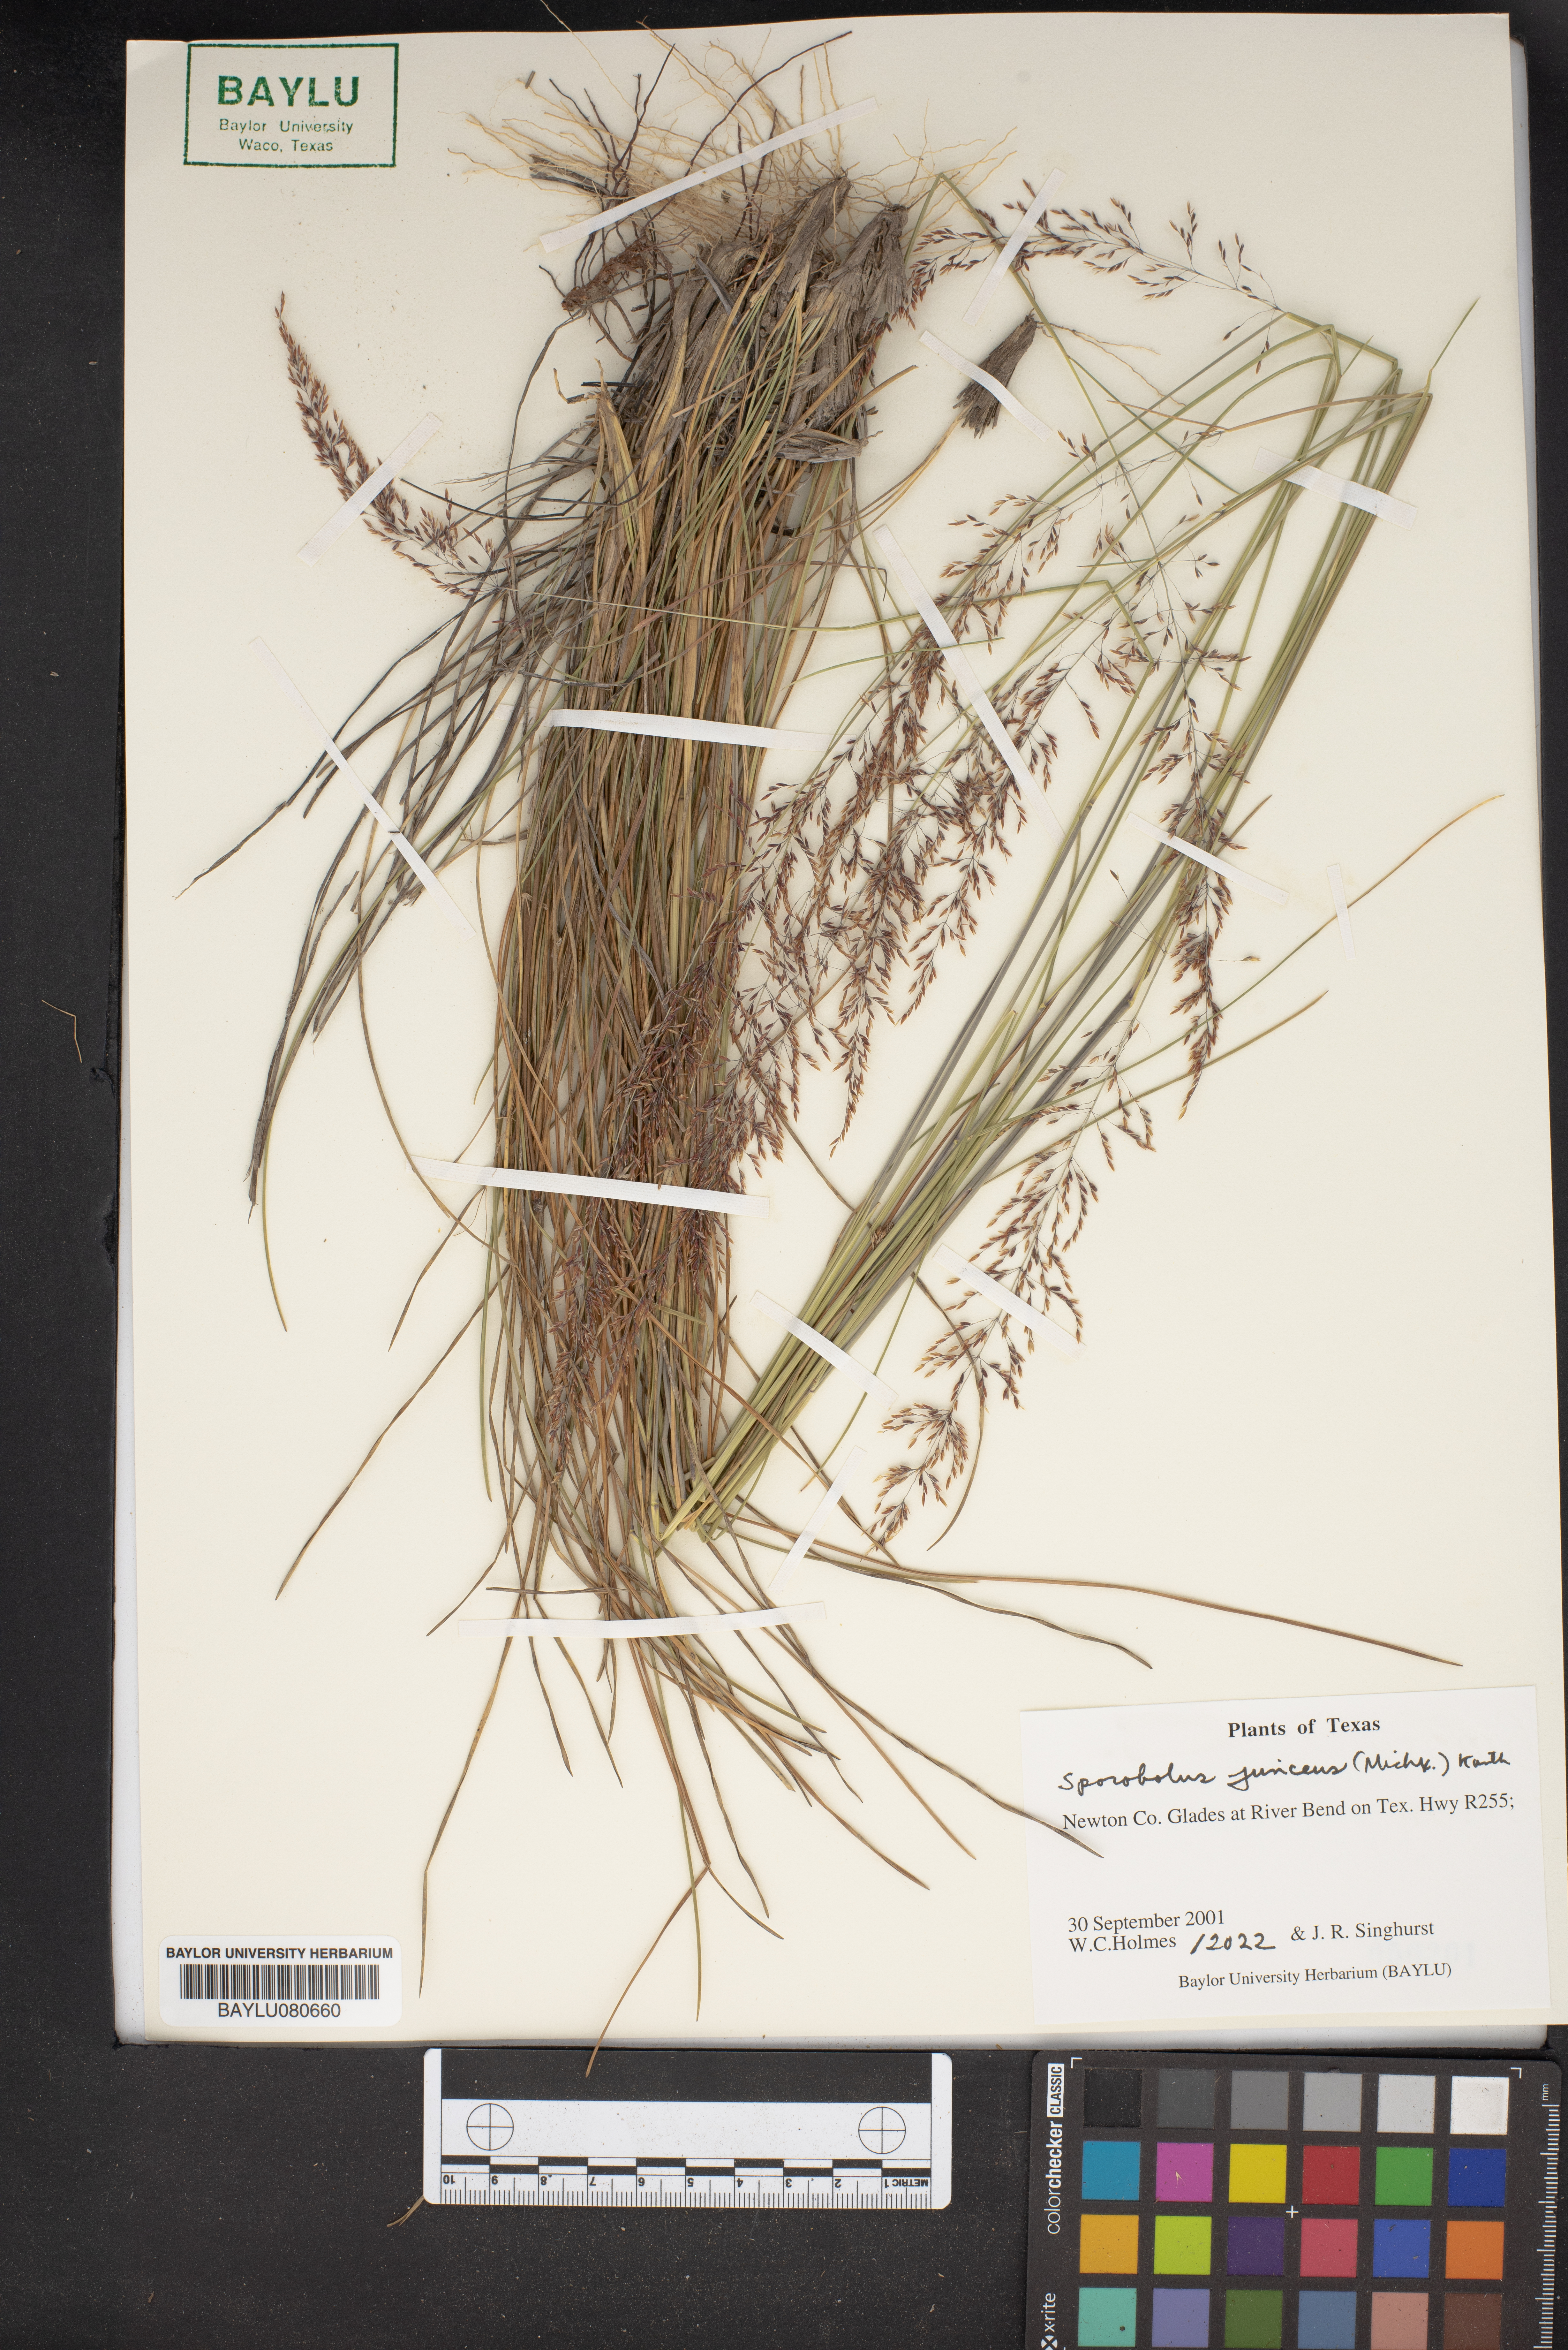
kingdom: Plantae
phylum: Tracheophyta
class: Liliopsida
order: Poales
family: Poaceae
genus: Sporobolus
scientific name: Sporobolus junceus
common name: Lizard grass
